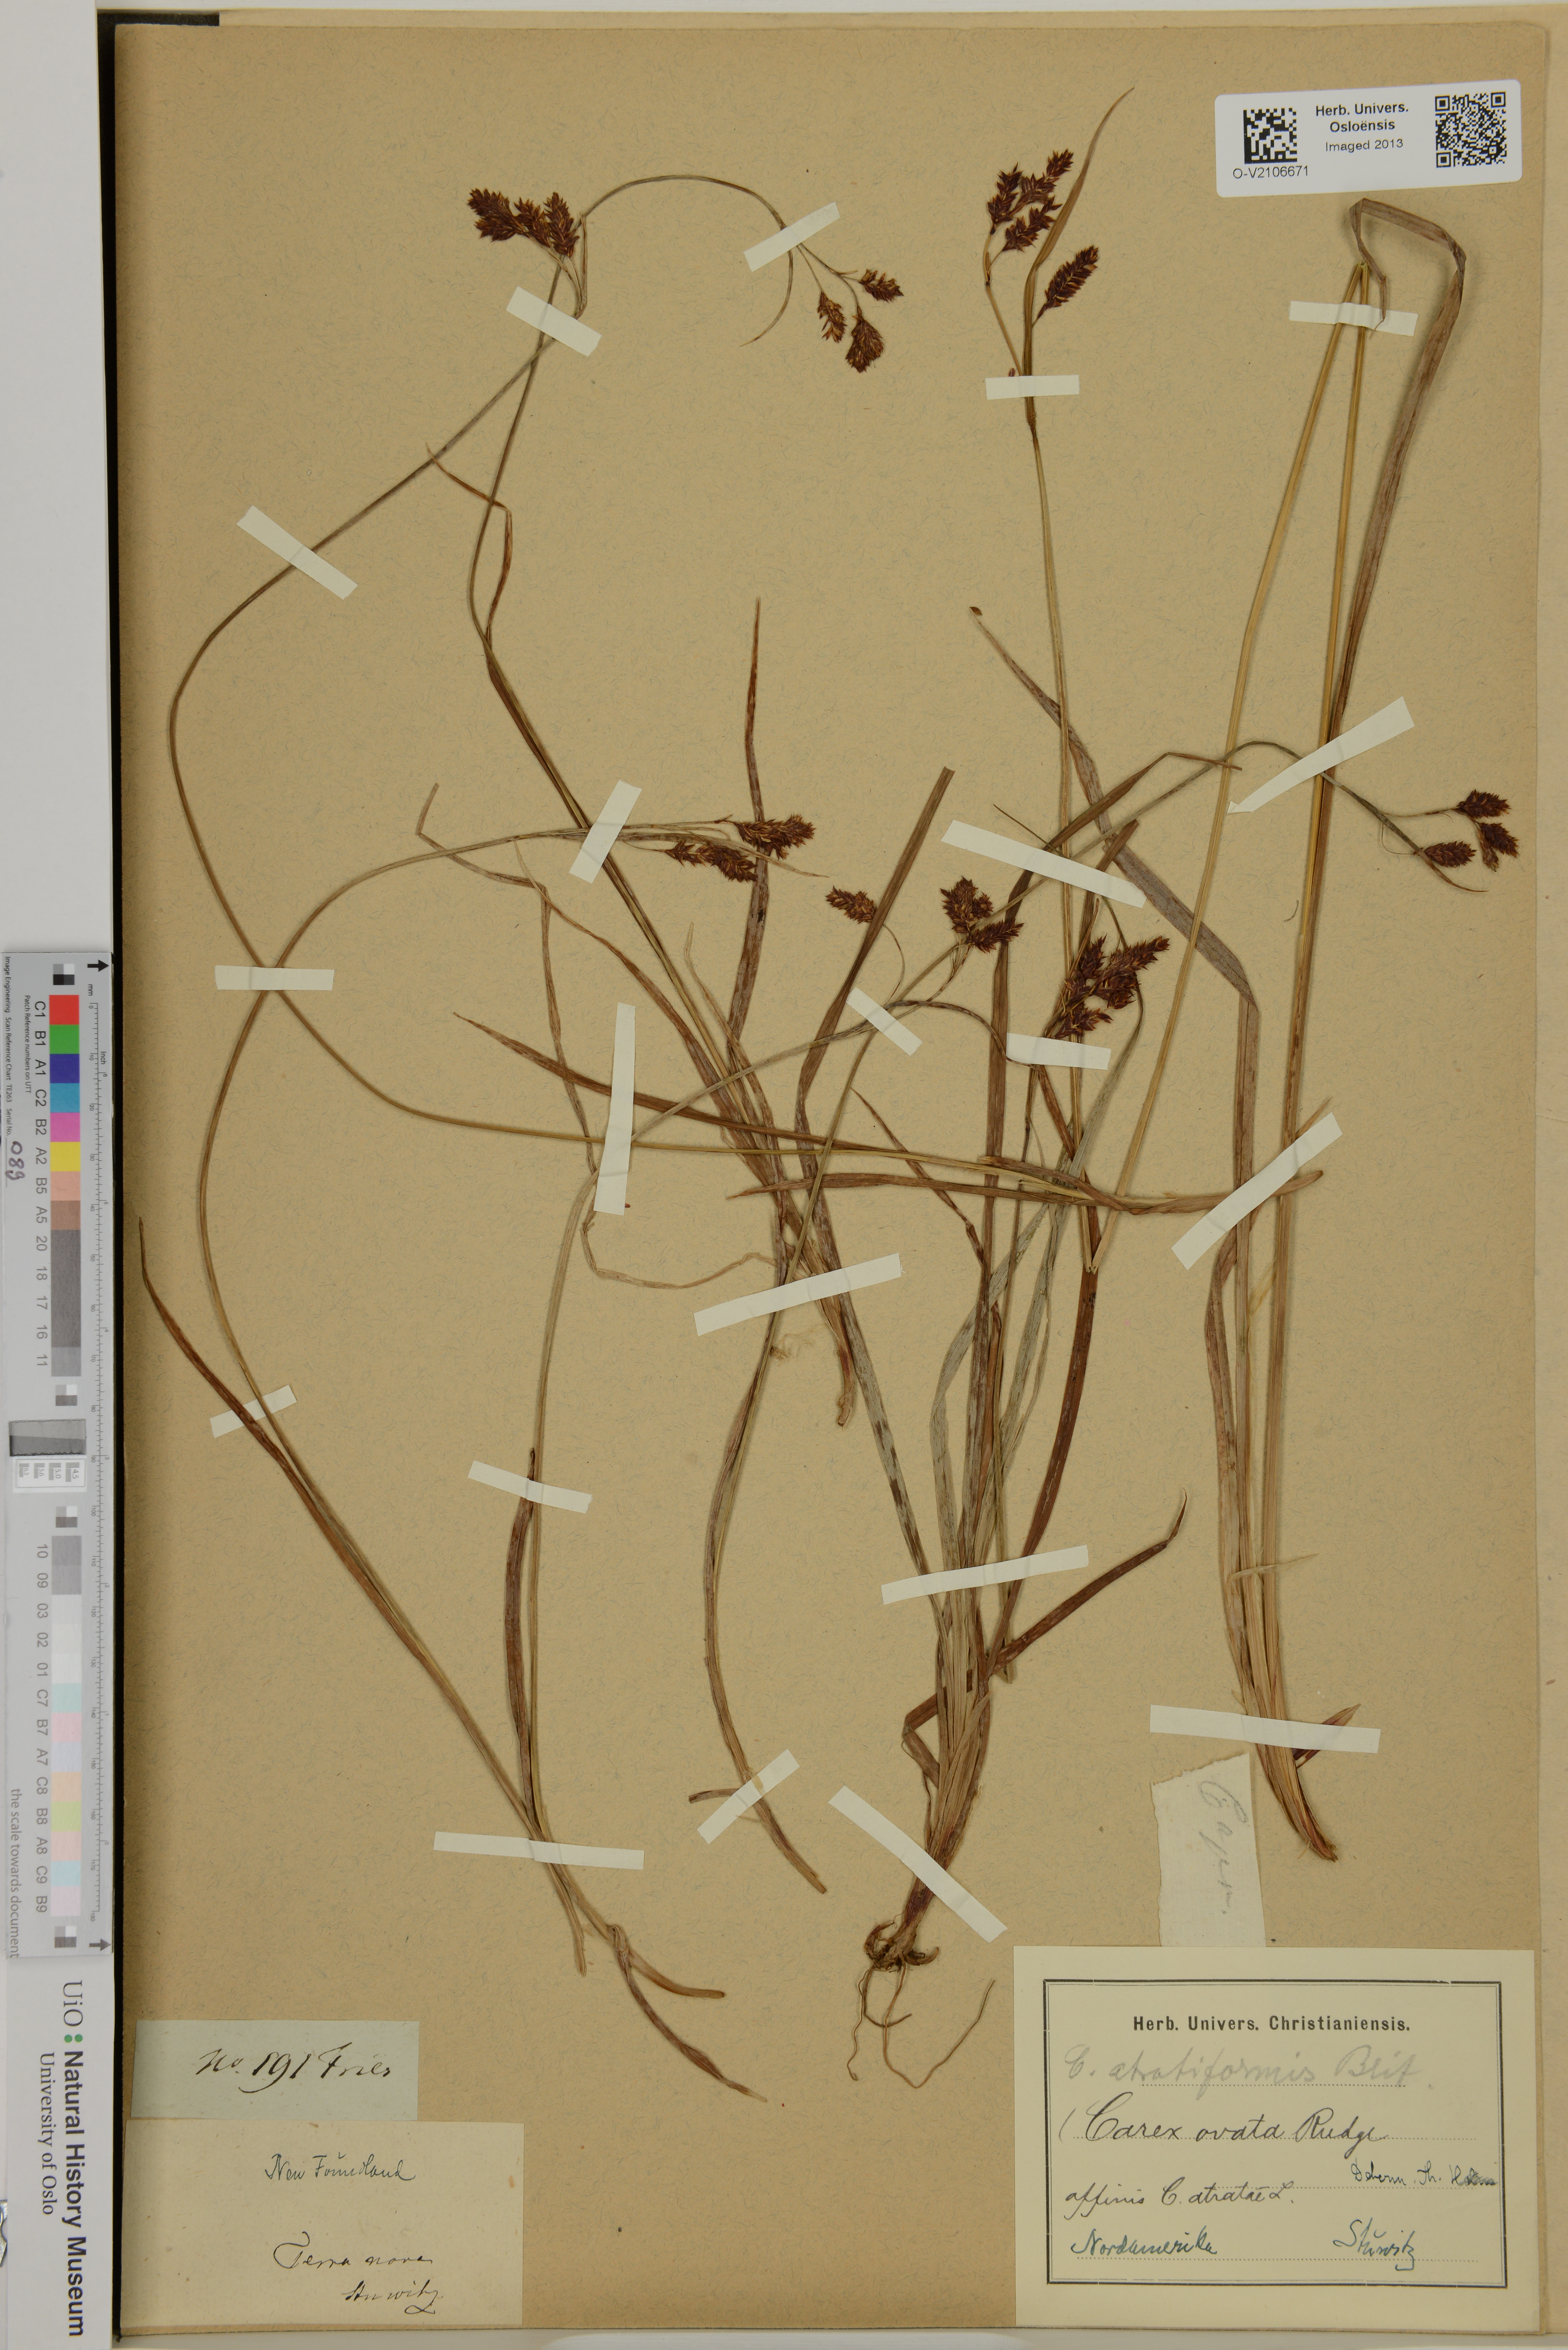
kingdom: Plantae
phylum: Tracheophyta
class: Liliopsida
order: Poales
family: Cyperaceae
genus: Carex
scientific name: Carex atratiformis
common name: Black sedge
